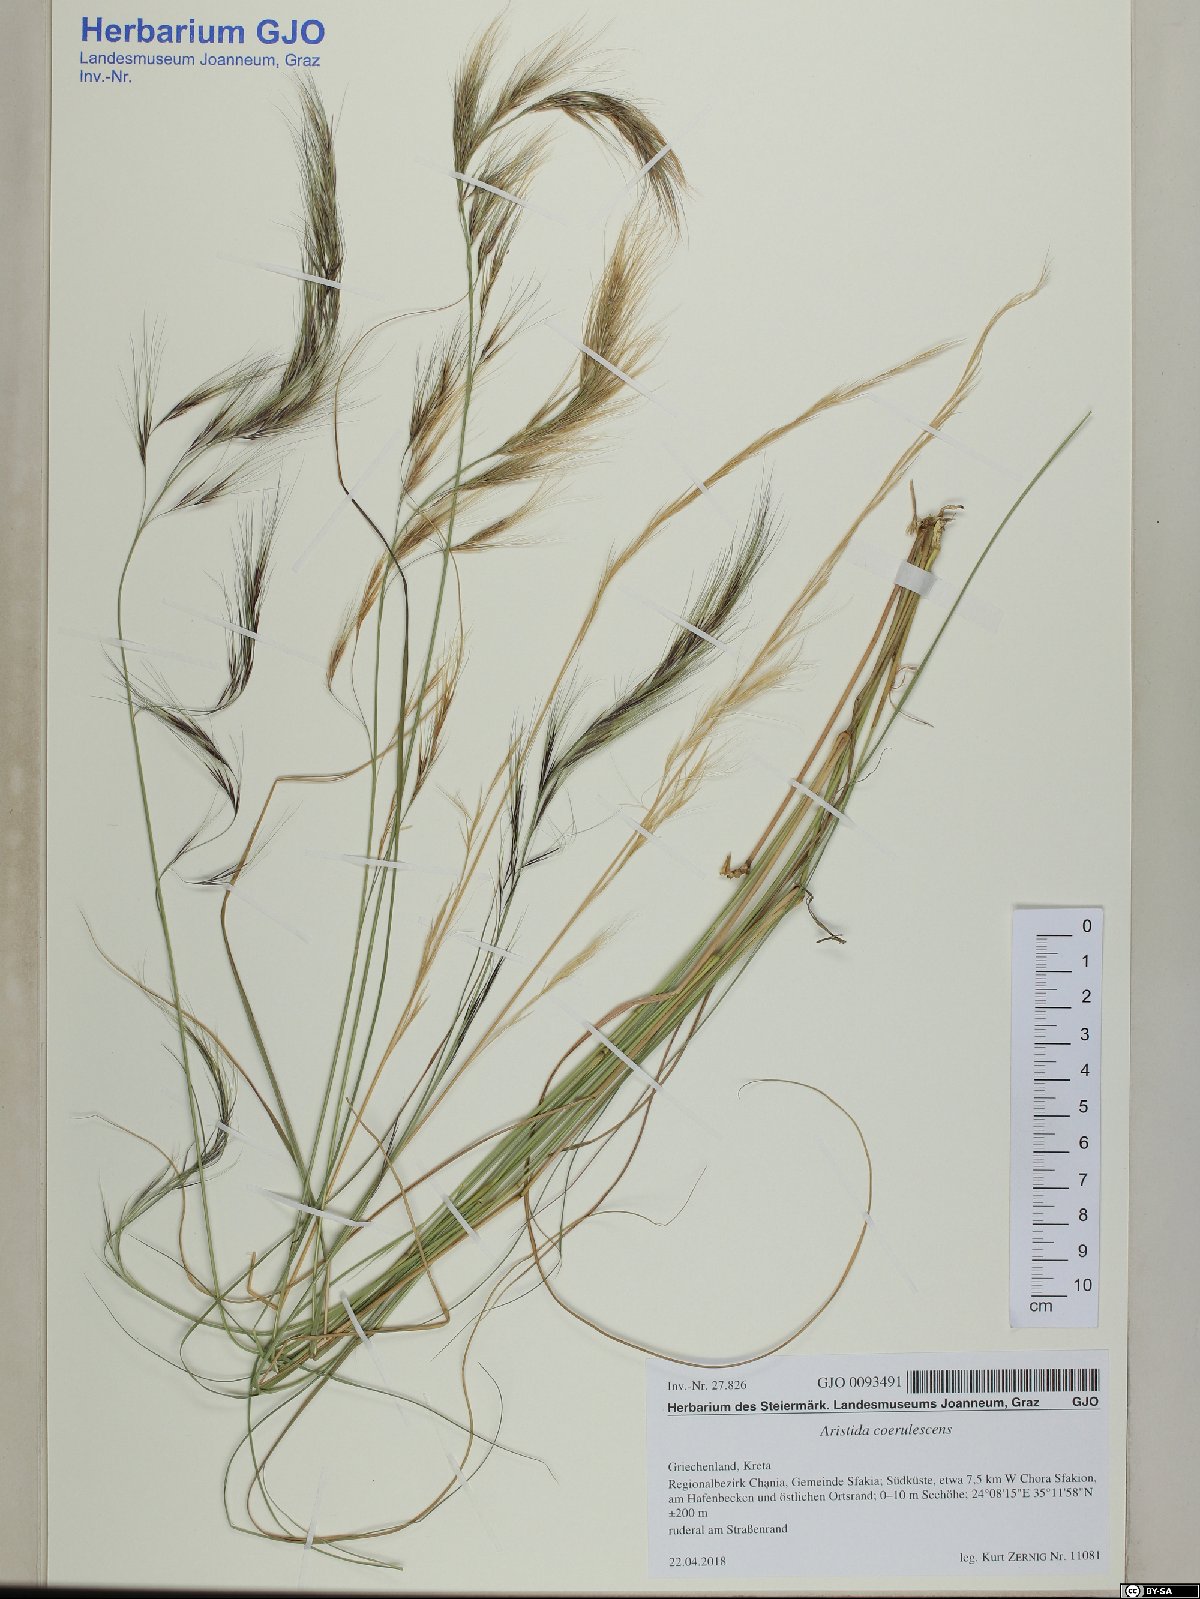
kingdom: Plantae
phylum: Tracheophyta
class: Liliopsida
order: Poales
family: Poaceae
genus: Aristida
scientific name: Aristida adscensionis
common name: Sixweeks threeawn
